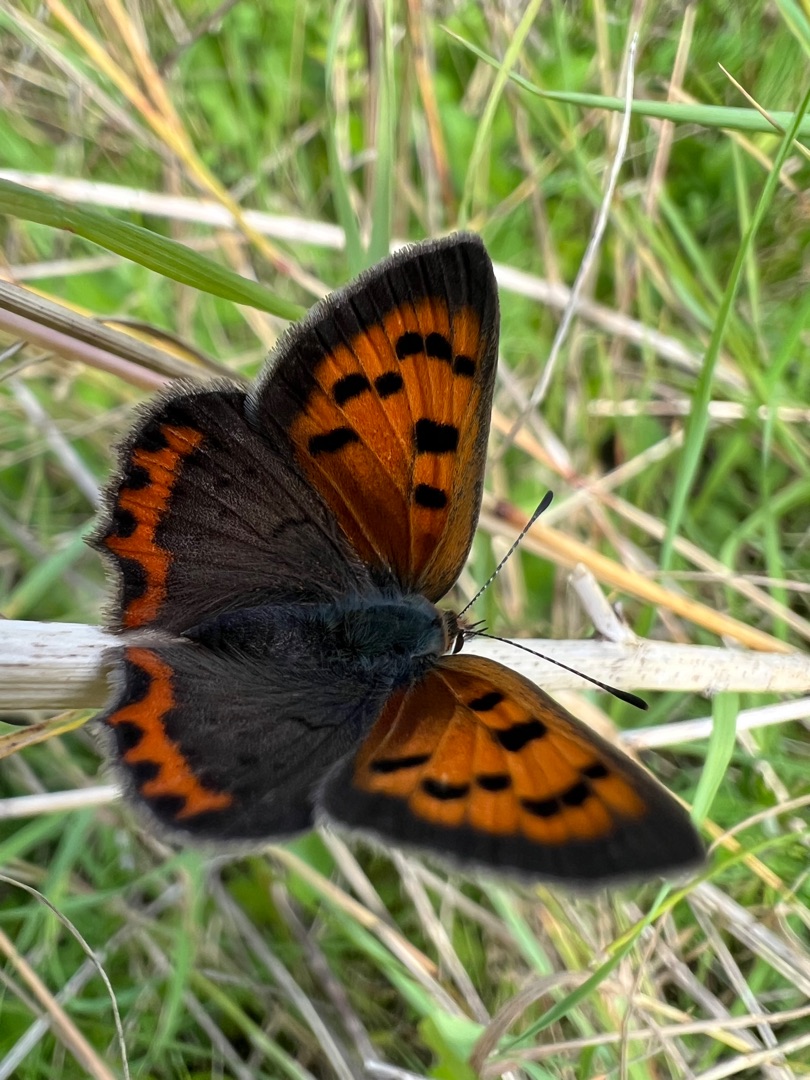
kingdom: Animalia
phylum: Arthropoda
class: Insecta
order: Lepidoptera
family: Lycaenidae
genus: Lycaena
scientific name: Lycaena phlaeas
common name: Lille ildfugl
